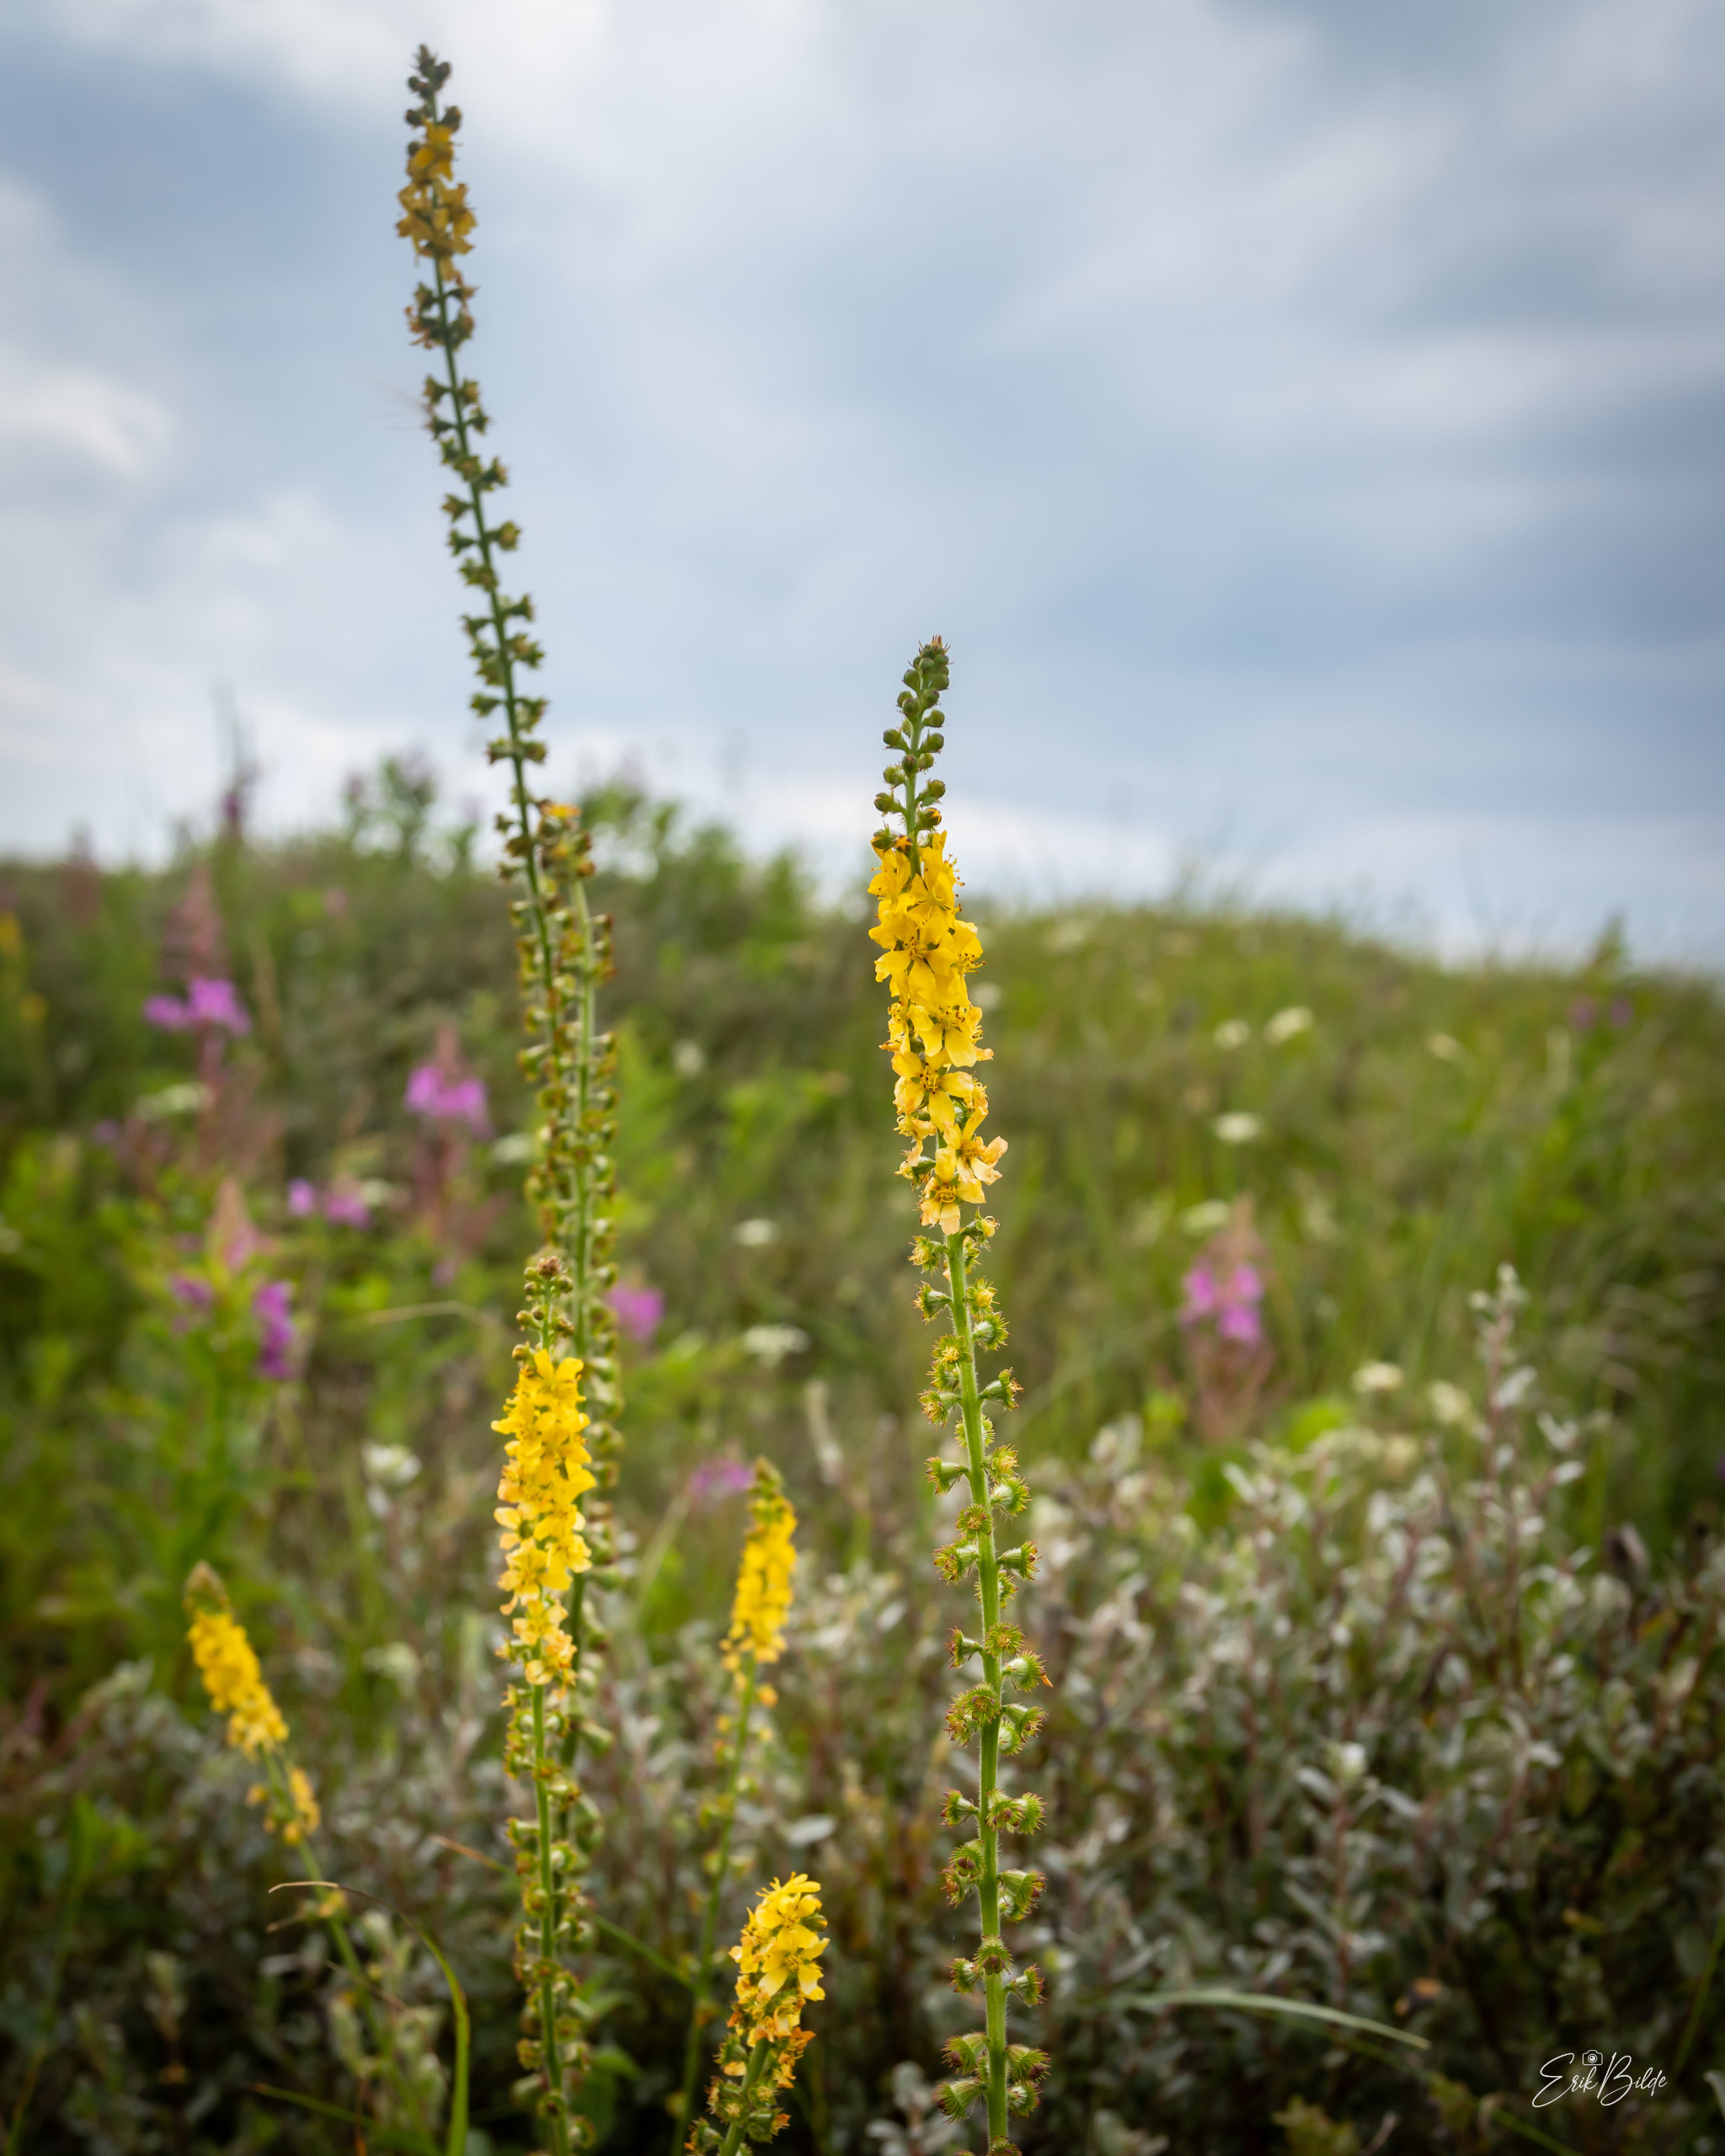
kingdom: Plantae
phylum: Tracheophyta
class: Magnoliopsida
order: Rosales
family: Rosaceae
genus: Agrimonia
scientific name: Agrimonia eupatoria
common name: Almindelig agermåne
